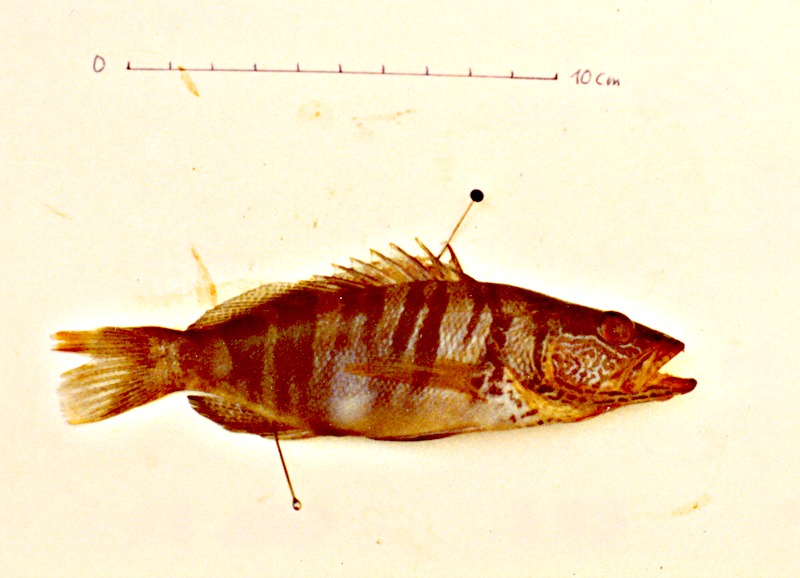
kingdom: Animalia
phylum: Chordata
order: Perciformes
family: Serranidae
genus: Serranus
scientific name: Serranus scriba
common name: Painted comber
